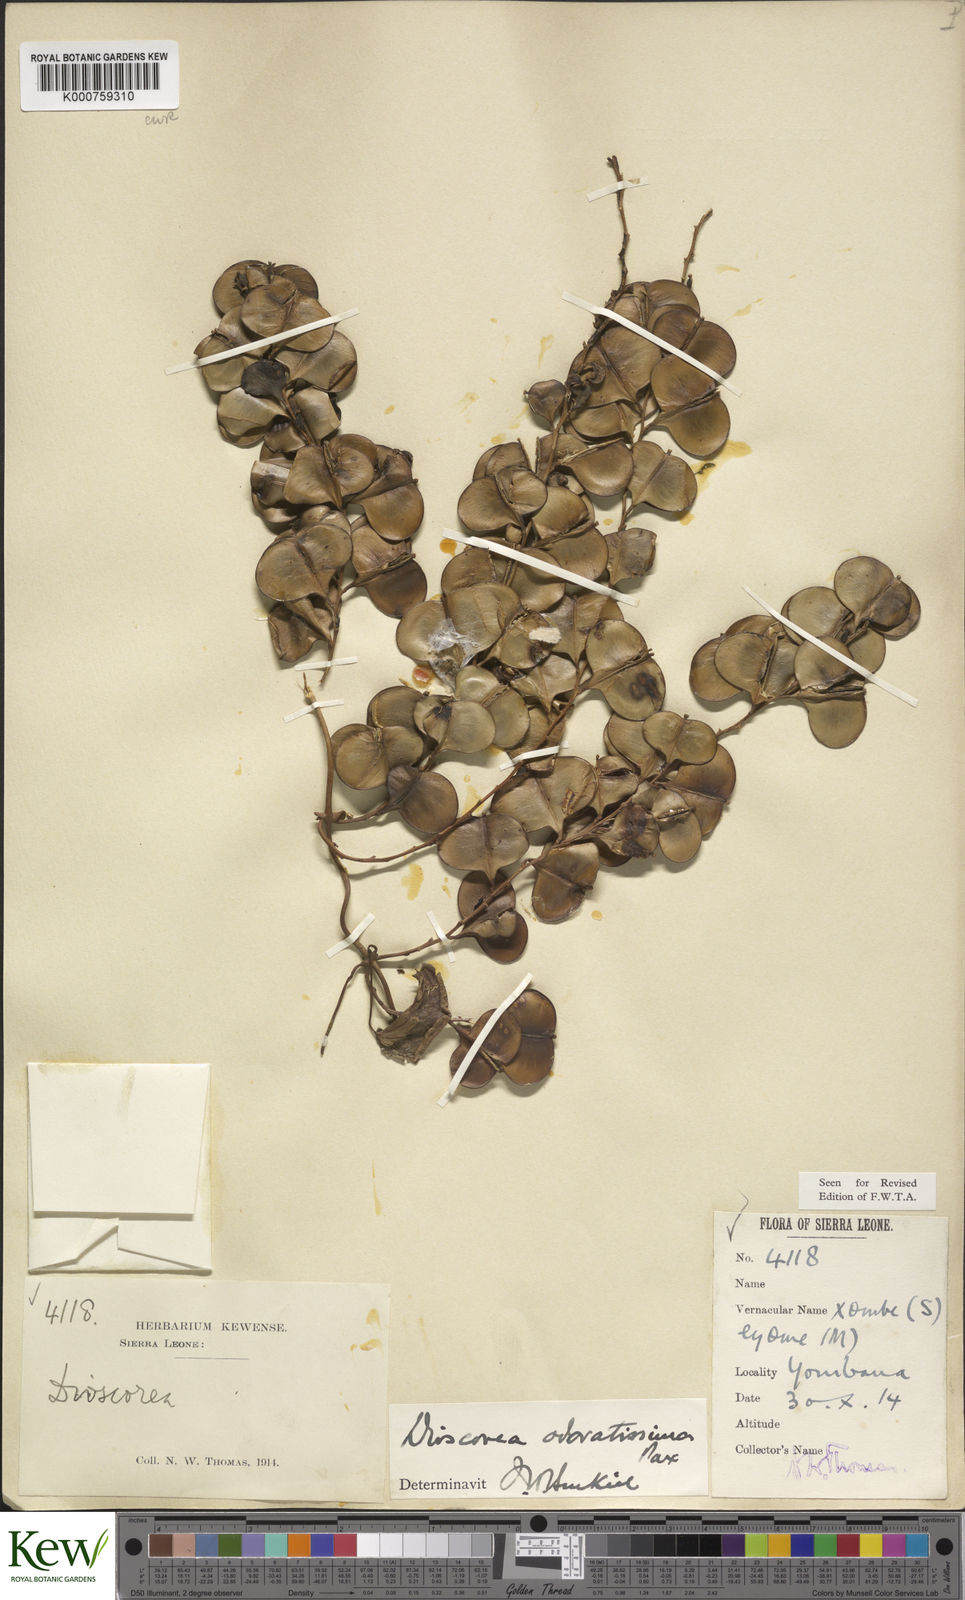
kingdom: Plantae
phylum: Tracheophyta
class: Liliopsida
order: Dioscoreales
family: Dioscoreaceae
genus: Dioscorea
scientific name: Dioscorea praehensilis
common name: Bush yam
